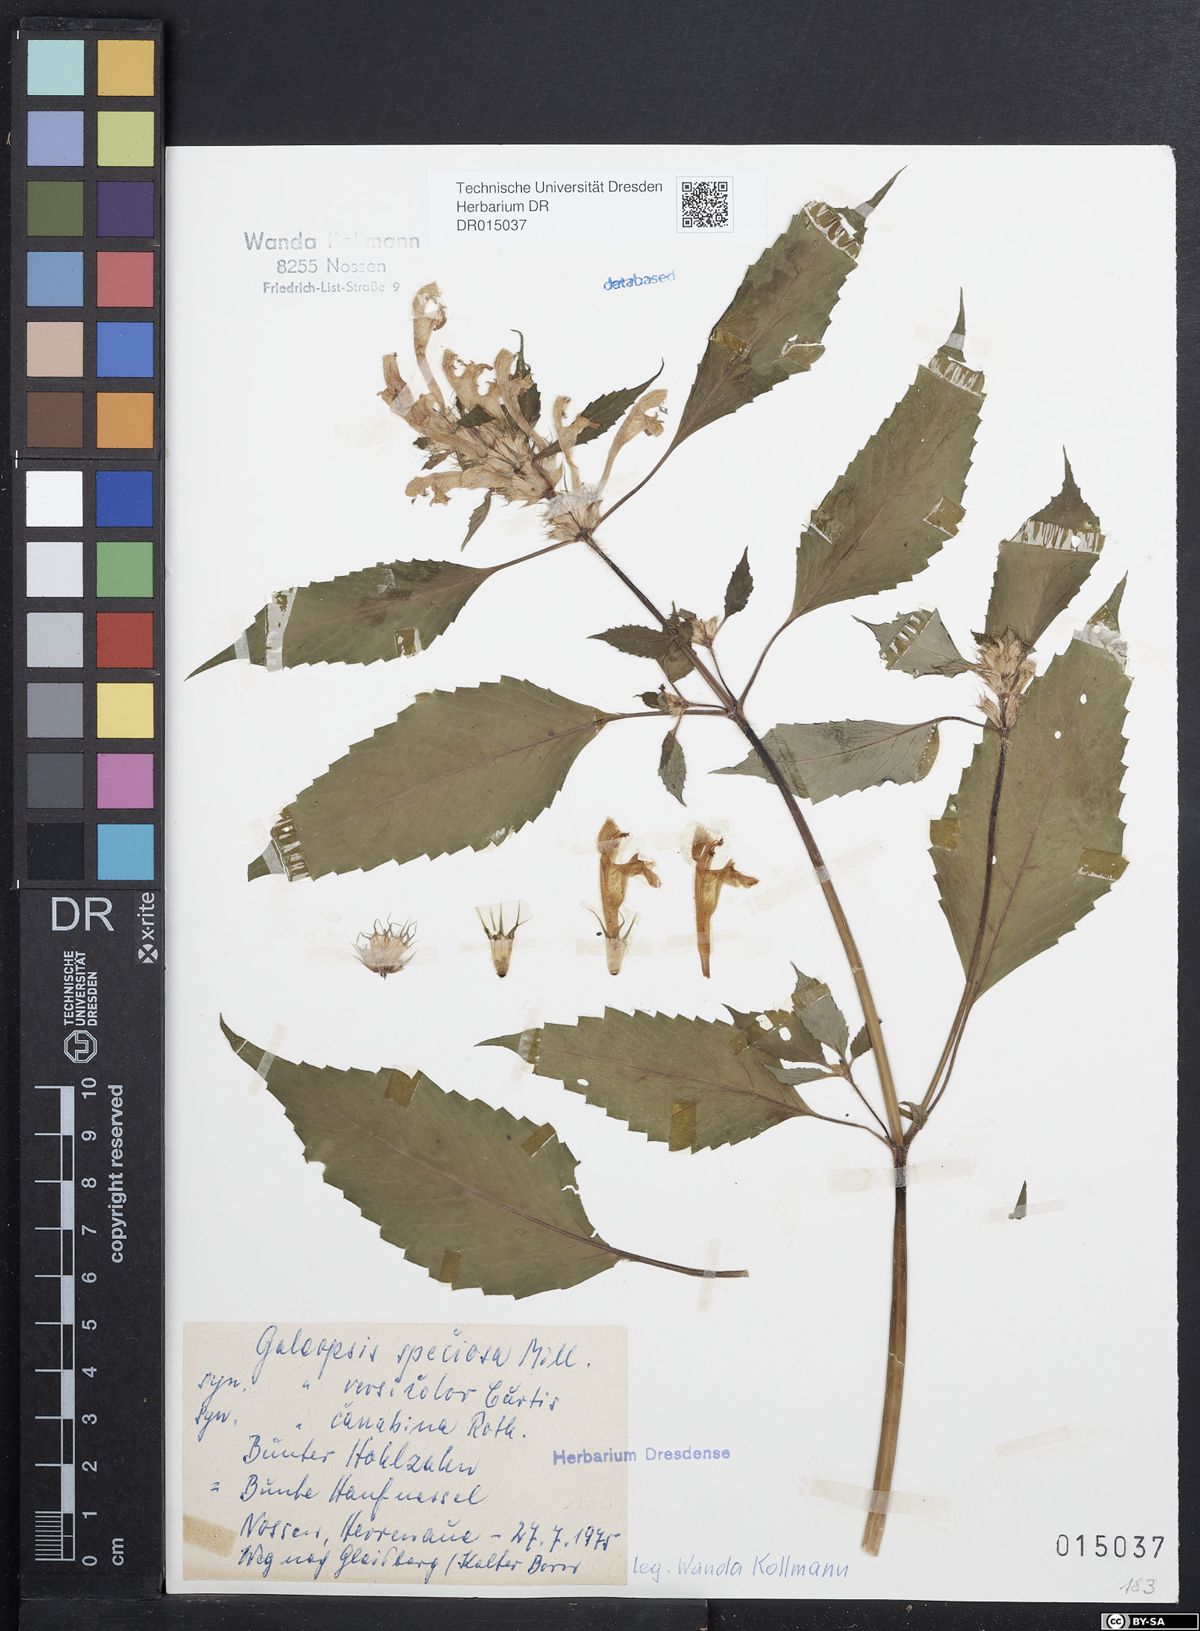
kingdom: Plantae
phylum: Tracheophyta
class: Magnoliopsida
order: Lamiales
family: Lamiaceae
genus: Galeopsis
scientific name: Galeopsis speciosa
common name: Large-flowered hemp-nettle
